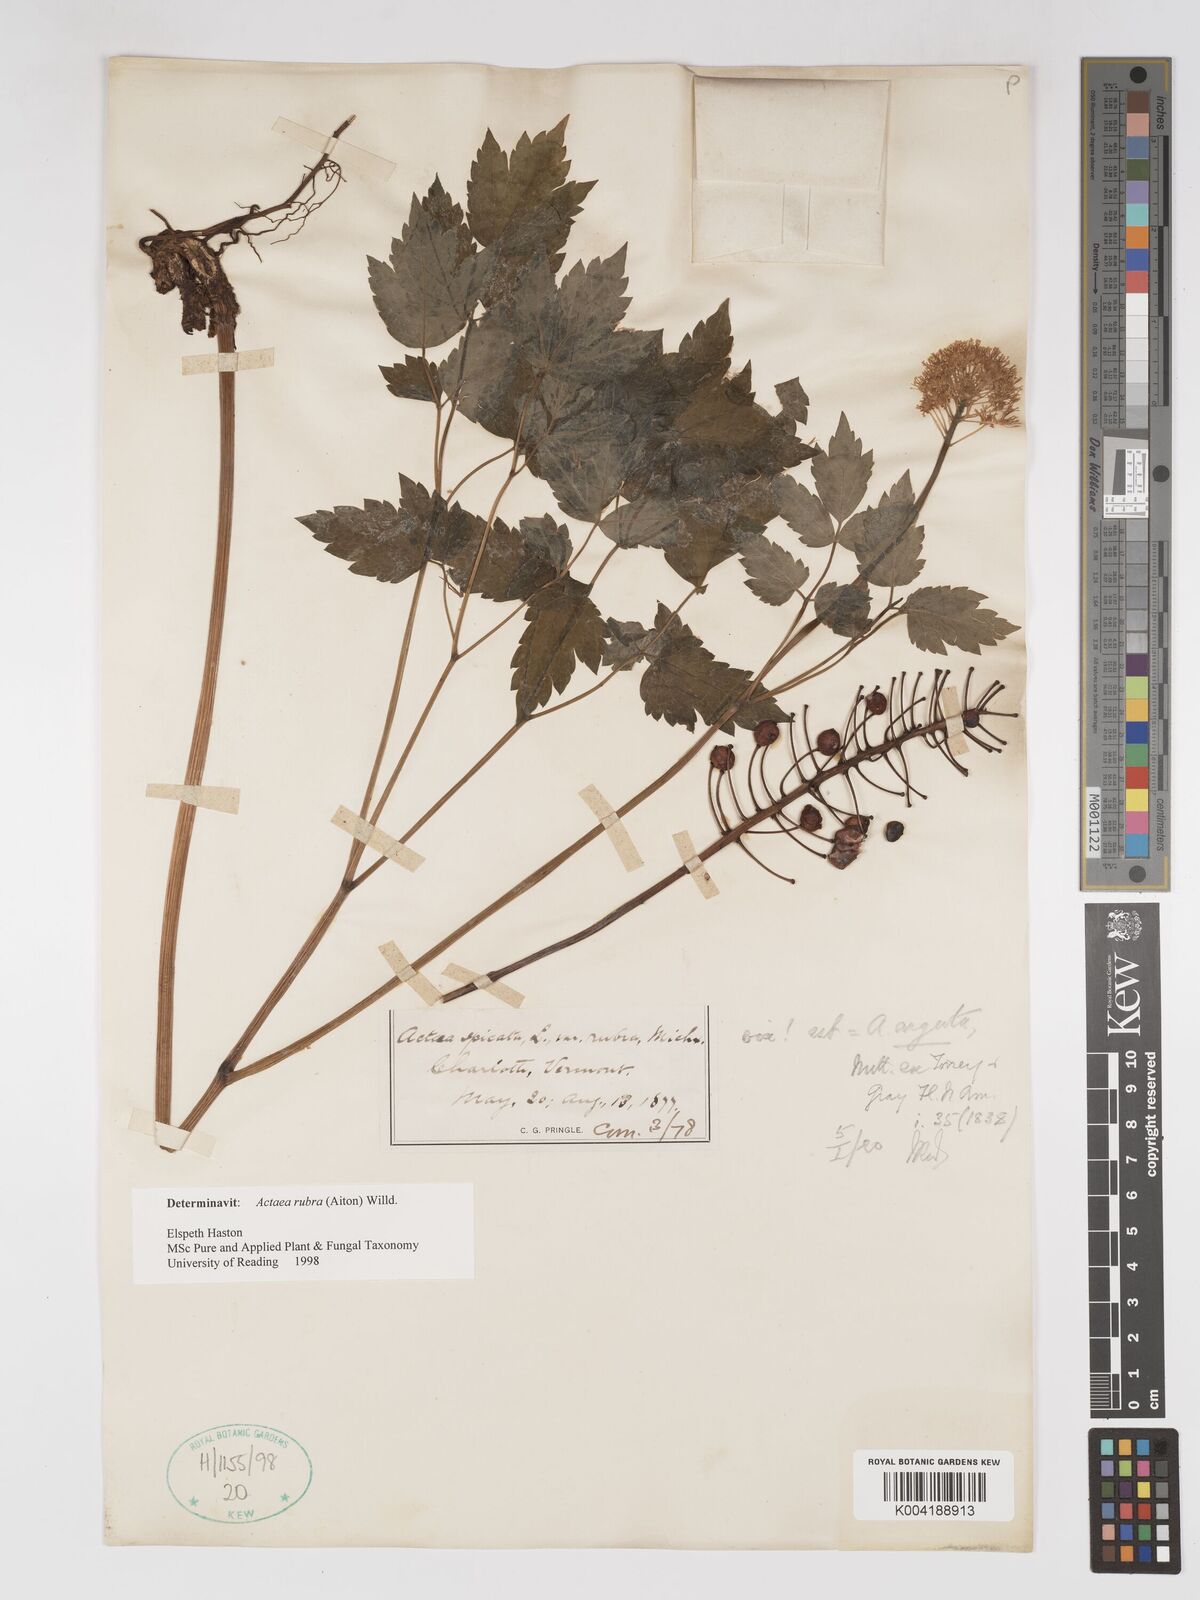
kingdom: Plantae
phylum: Tracheophyta
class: Magnoliopsida
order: Ranunculales
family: Ranunculaceae
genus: Actaea
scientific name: Actaea rubra
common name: Red baneberry
